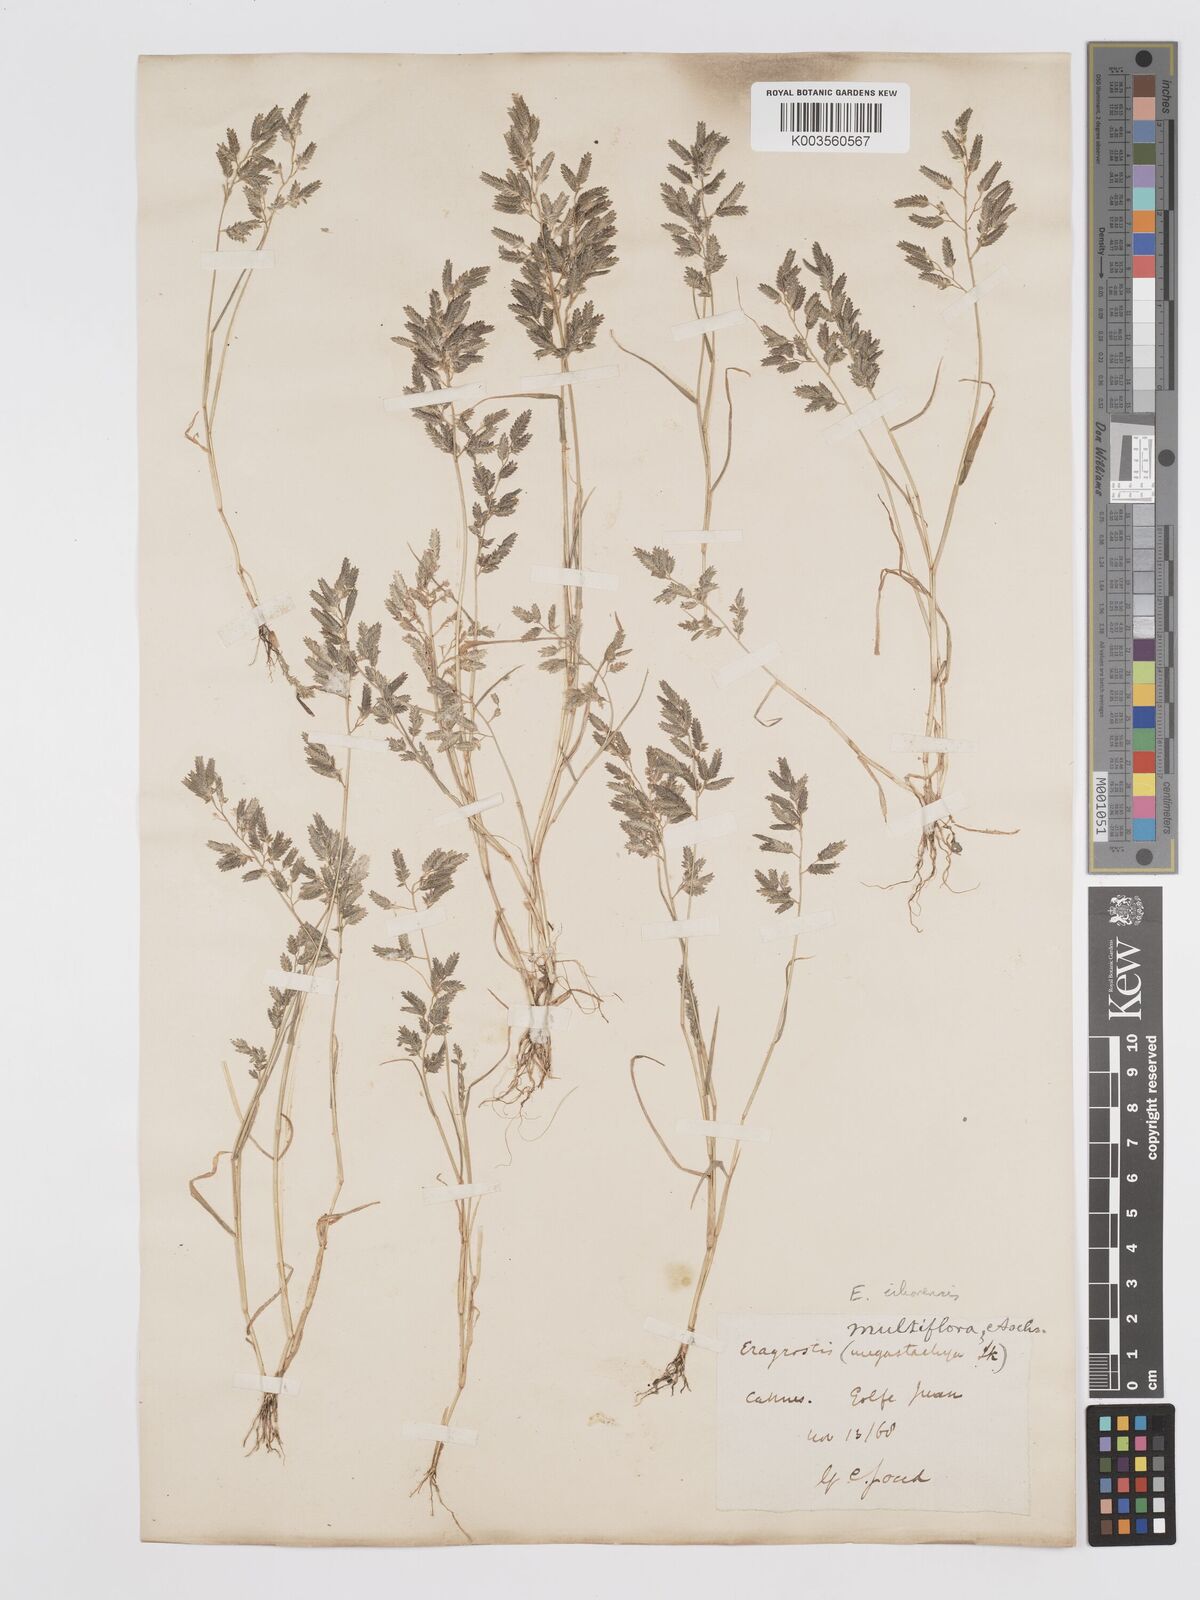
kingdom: Plantae
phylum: Tracheophyta
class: Liliopsida
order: Poales
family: Poaceae
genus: Eragrostis
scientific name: Eragrostis cilianensis
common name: Stinkgrass
